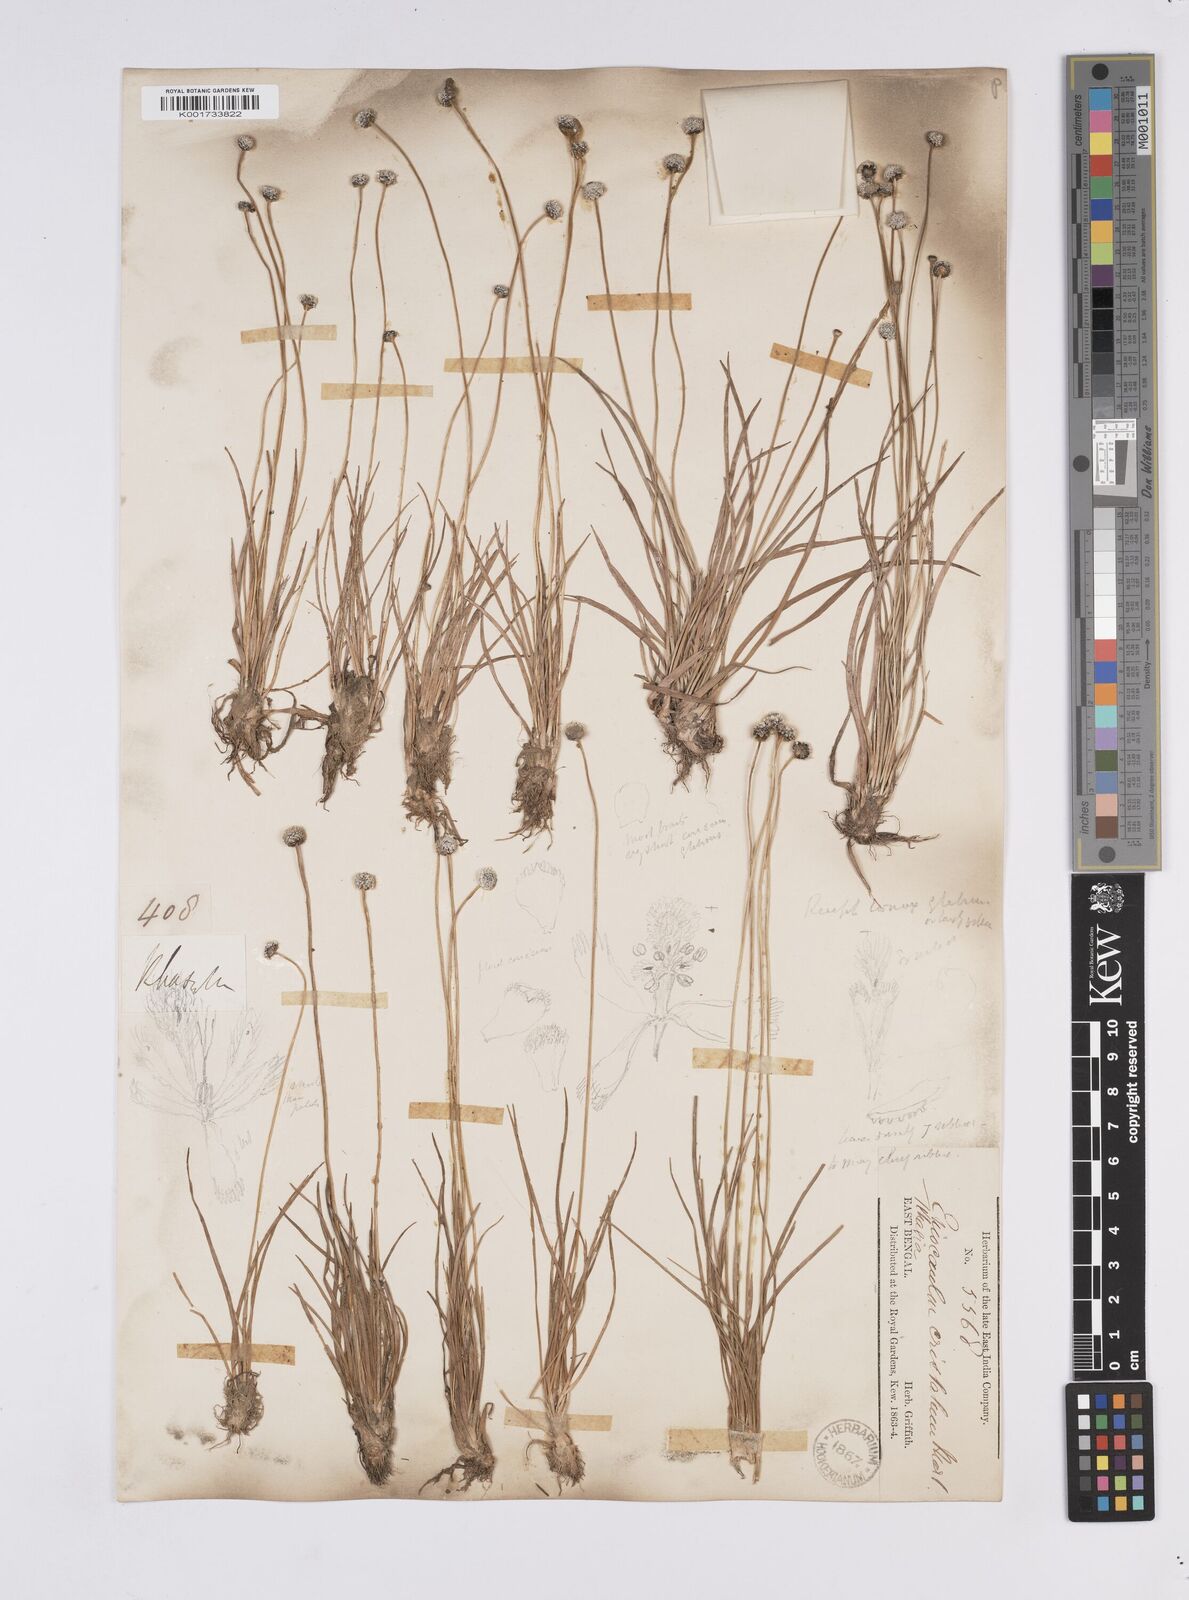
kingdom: Plantae
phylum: Tracheophyta
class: Liliopsida
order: Poales
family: Eriocaulaceae
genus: Eriocaulon
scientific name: Eriocaulon cristatum
